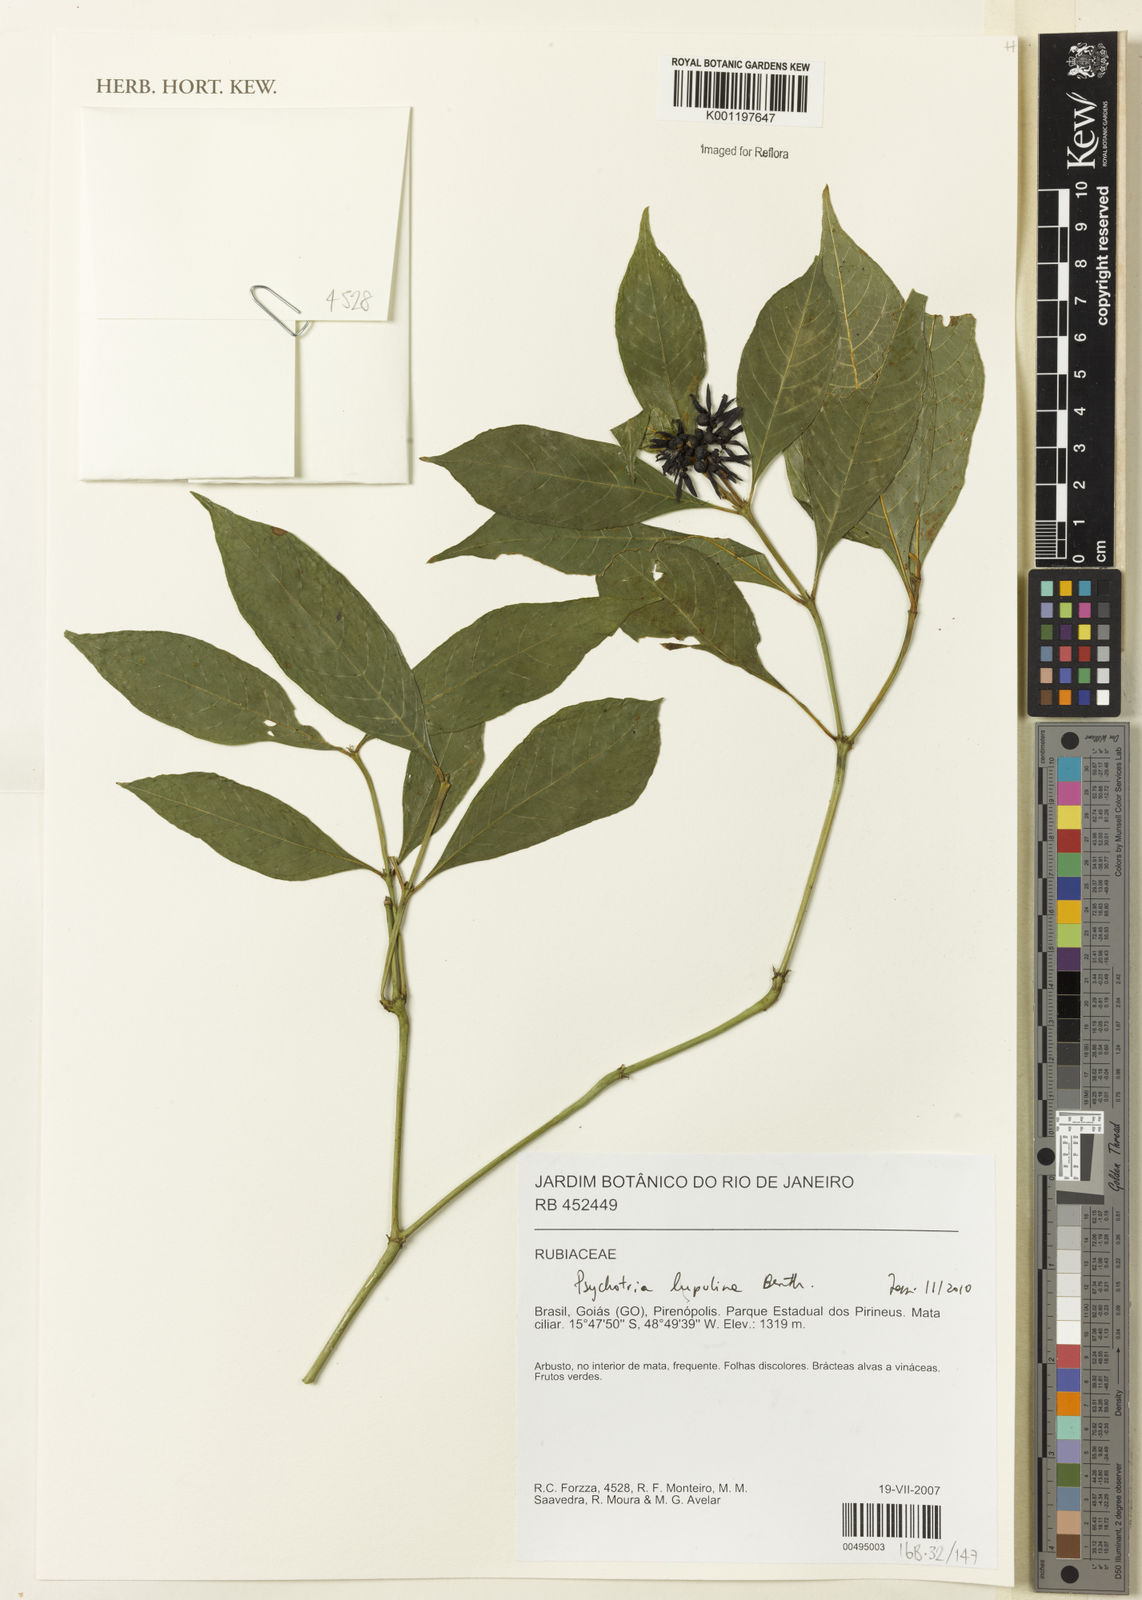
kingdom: Plantae
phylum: Tracheophyta
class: Magnoliopsida
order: Gentianales
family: Rubiaceae
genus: Palicourea
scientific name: Palicourea justiciifolia
